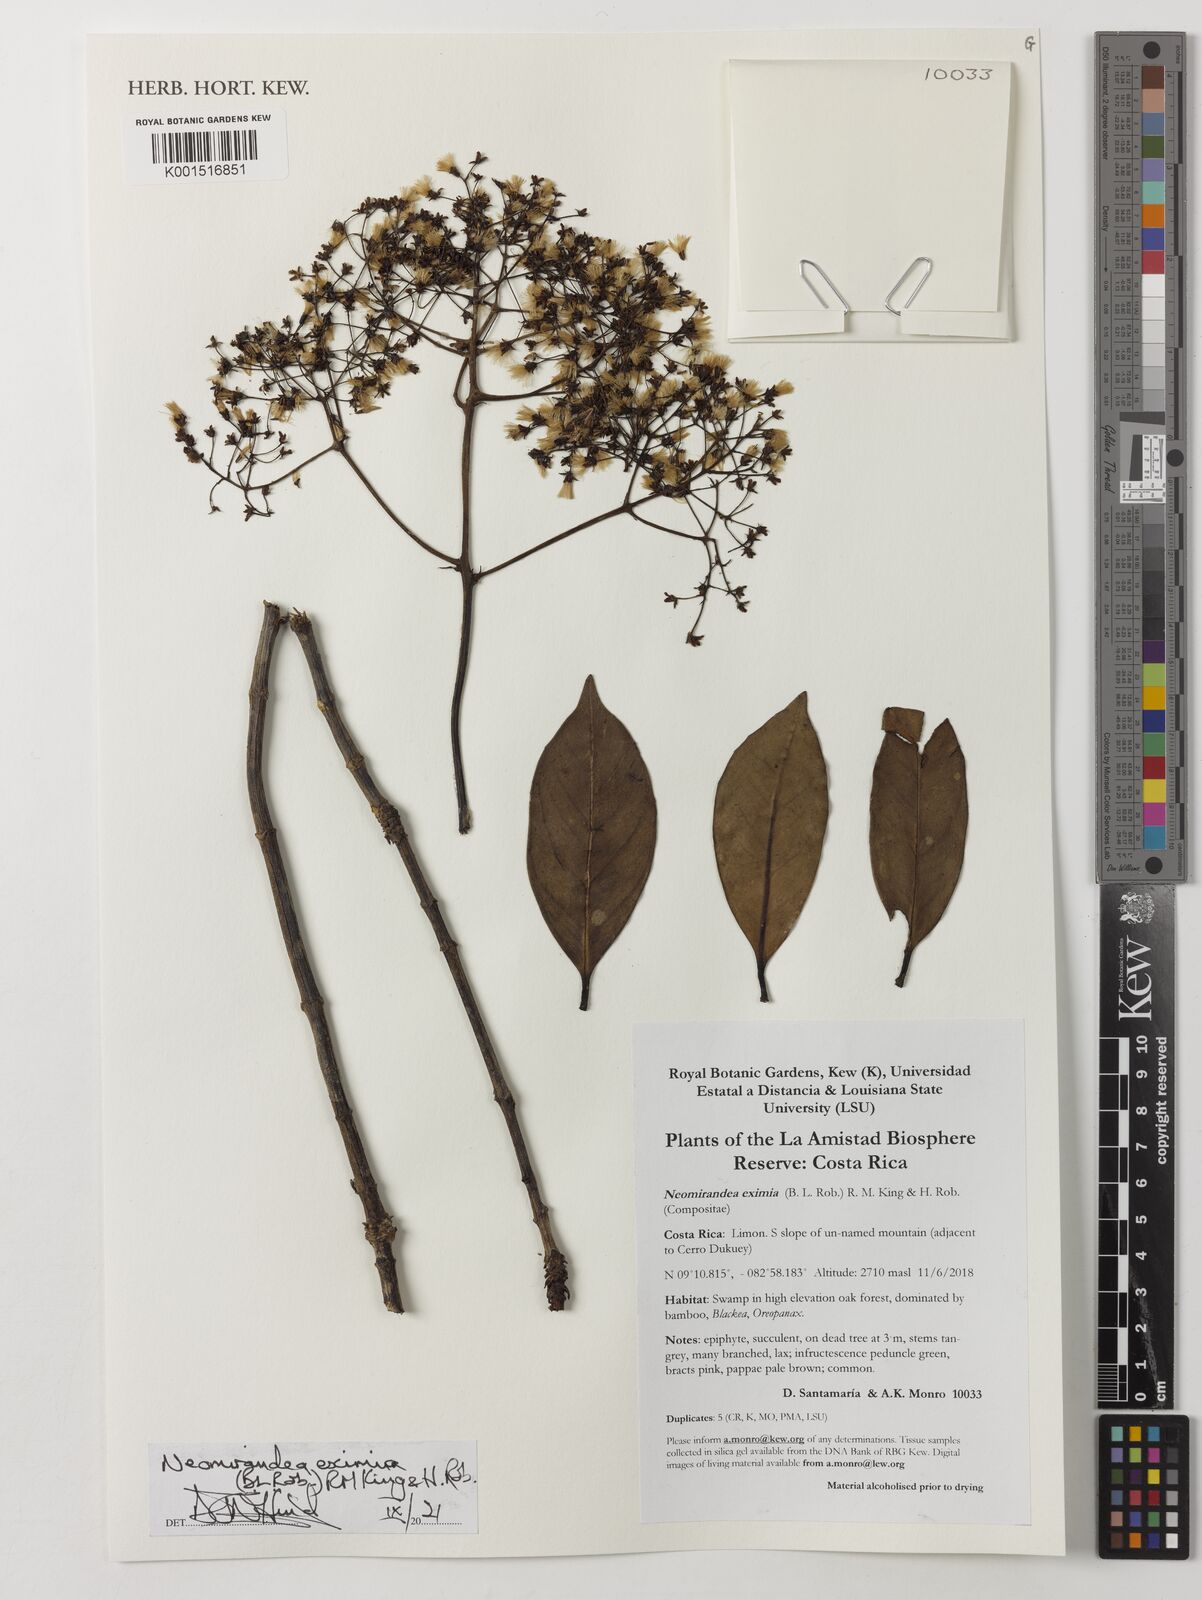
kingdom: Plantae
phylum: Tracheophyta
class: Magnoliopsida
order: Asterales
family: Asteraceae
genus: Neomirandea
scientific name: Neomirandea eximia
